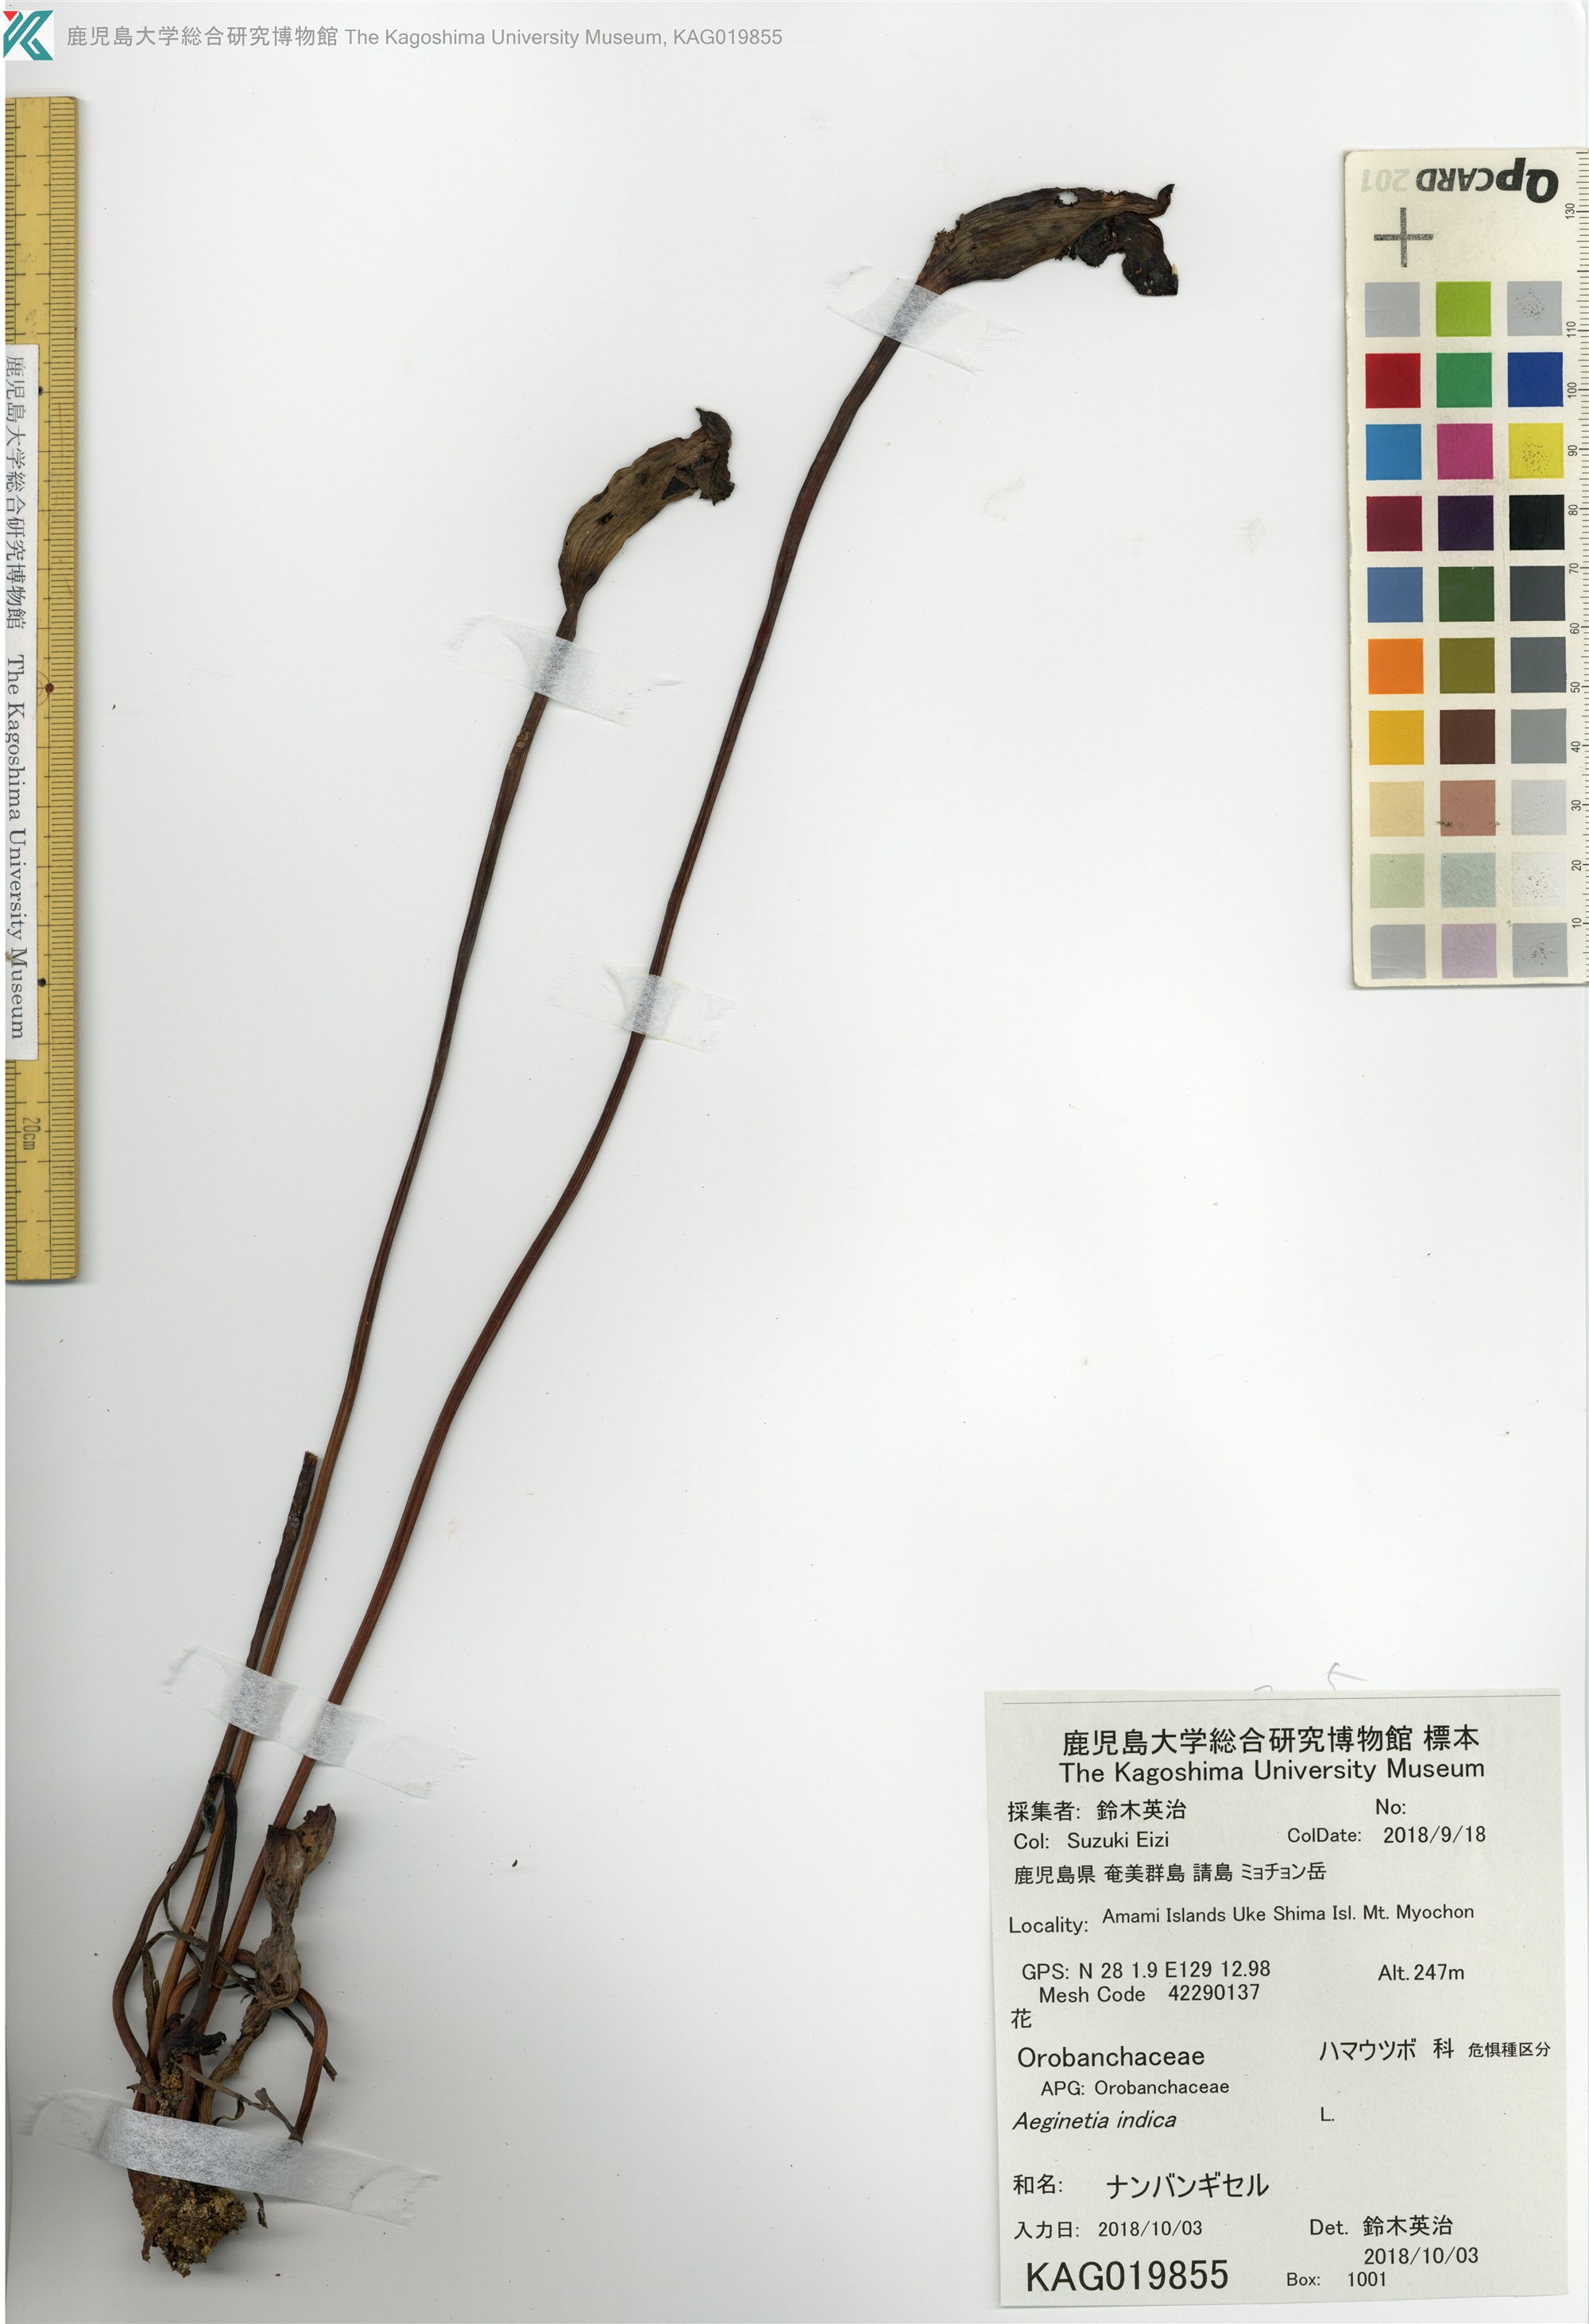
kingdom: Plantae
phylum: Tracheophyta
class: Magnoliopsida
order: Lamiales
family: Orobanchaceae
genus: Aeginetia
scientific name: Aeginetia indica
